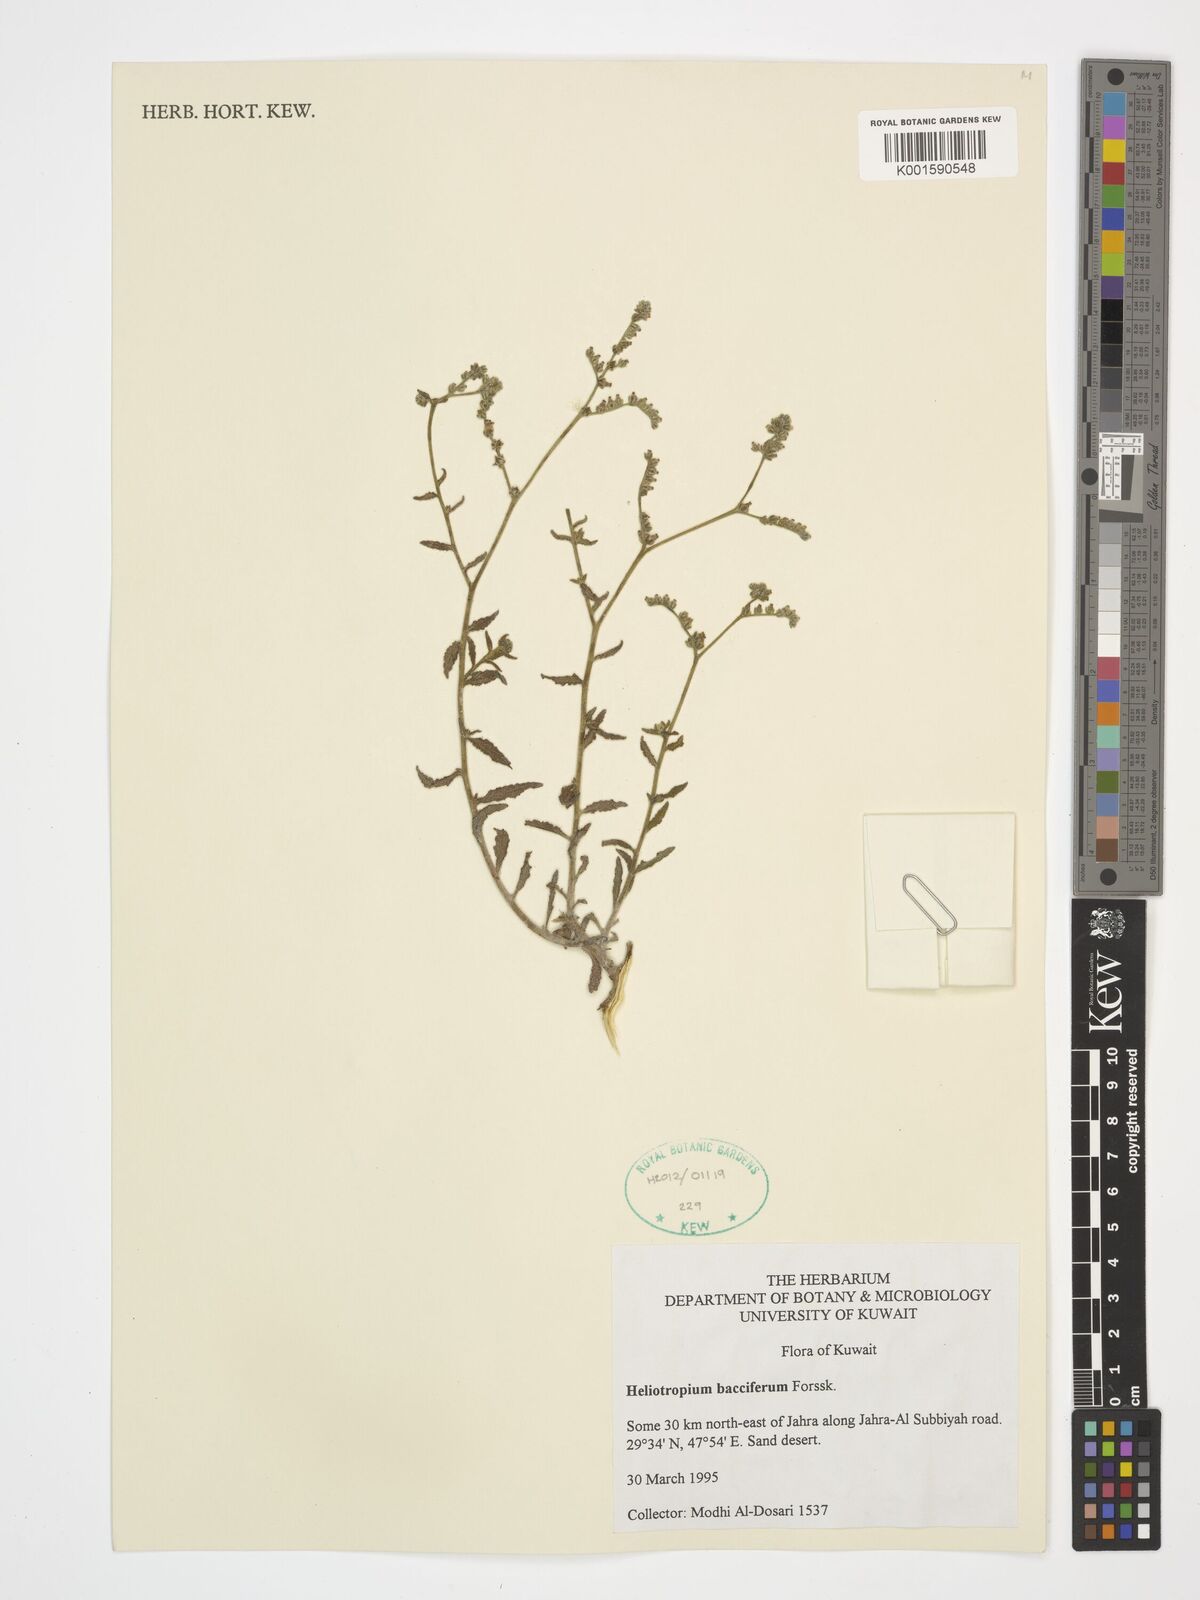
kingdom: Plantae
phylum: Tracheophyta
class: Magnoliopsida
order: Boraginales
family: Heliotropiaceae
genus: Heliotropium
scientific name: Heliotropium bacciferum
